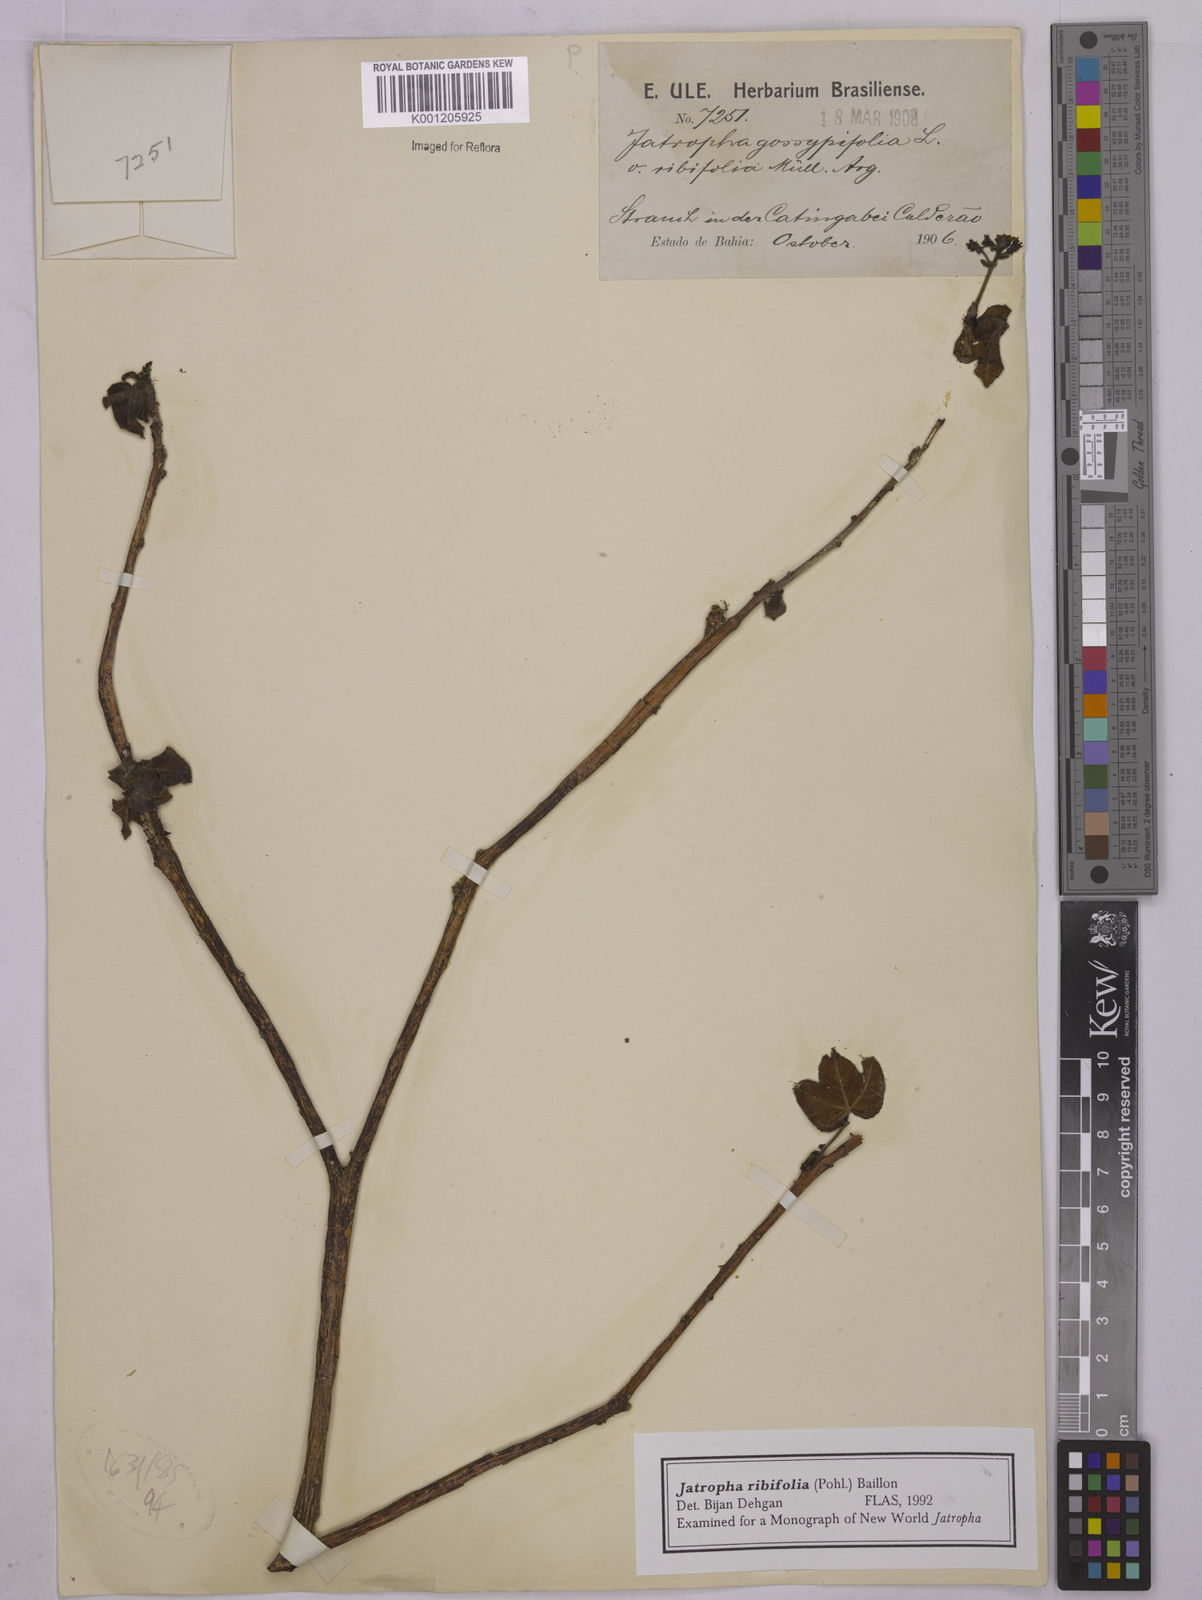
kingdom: Plantae
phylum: Tracheophyta
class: Magnoliopsida
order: Malpighiales
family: Euphorbiaceae
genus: Jatropha
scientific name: Jatropha ribifolia
